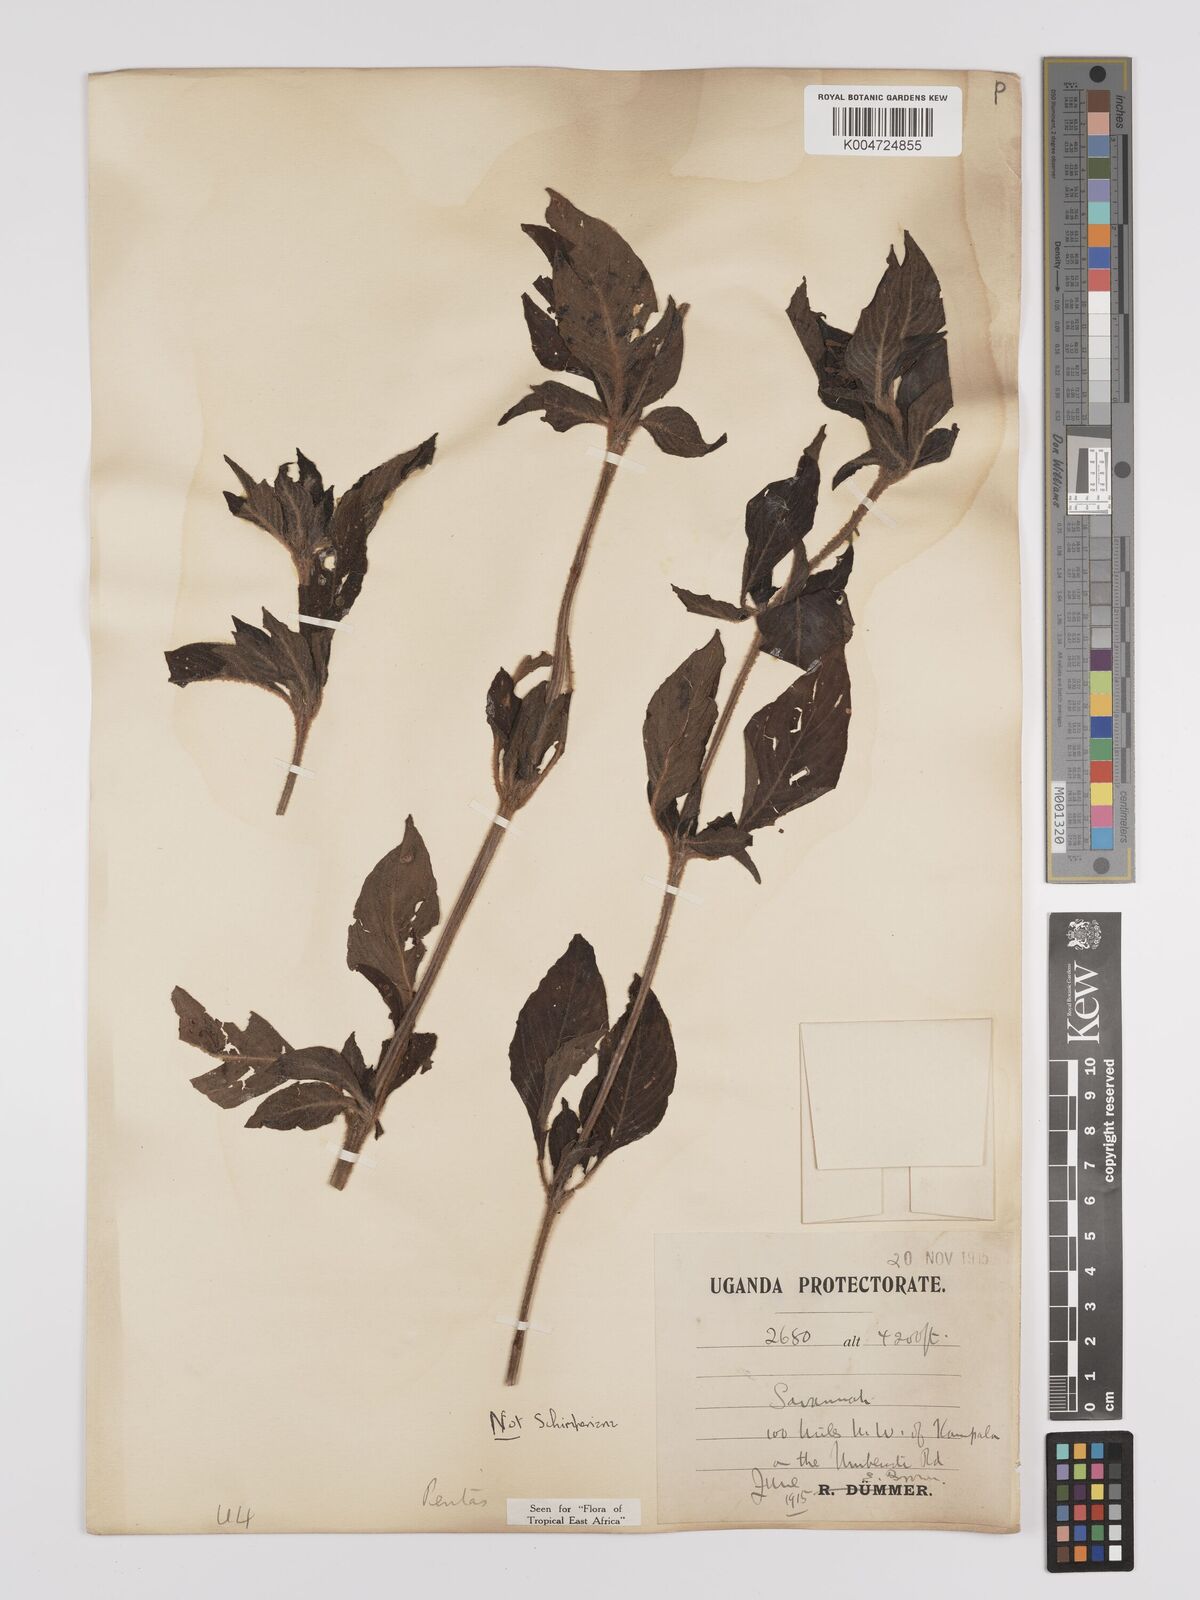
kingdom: Plantae
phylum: Tracheophyta
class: Magnoliopsida
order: Gentianales
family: Rubiaceae
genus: Pentas
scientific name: Pentas zanzibarica
